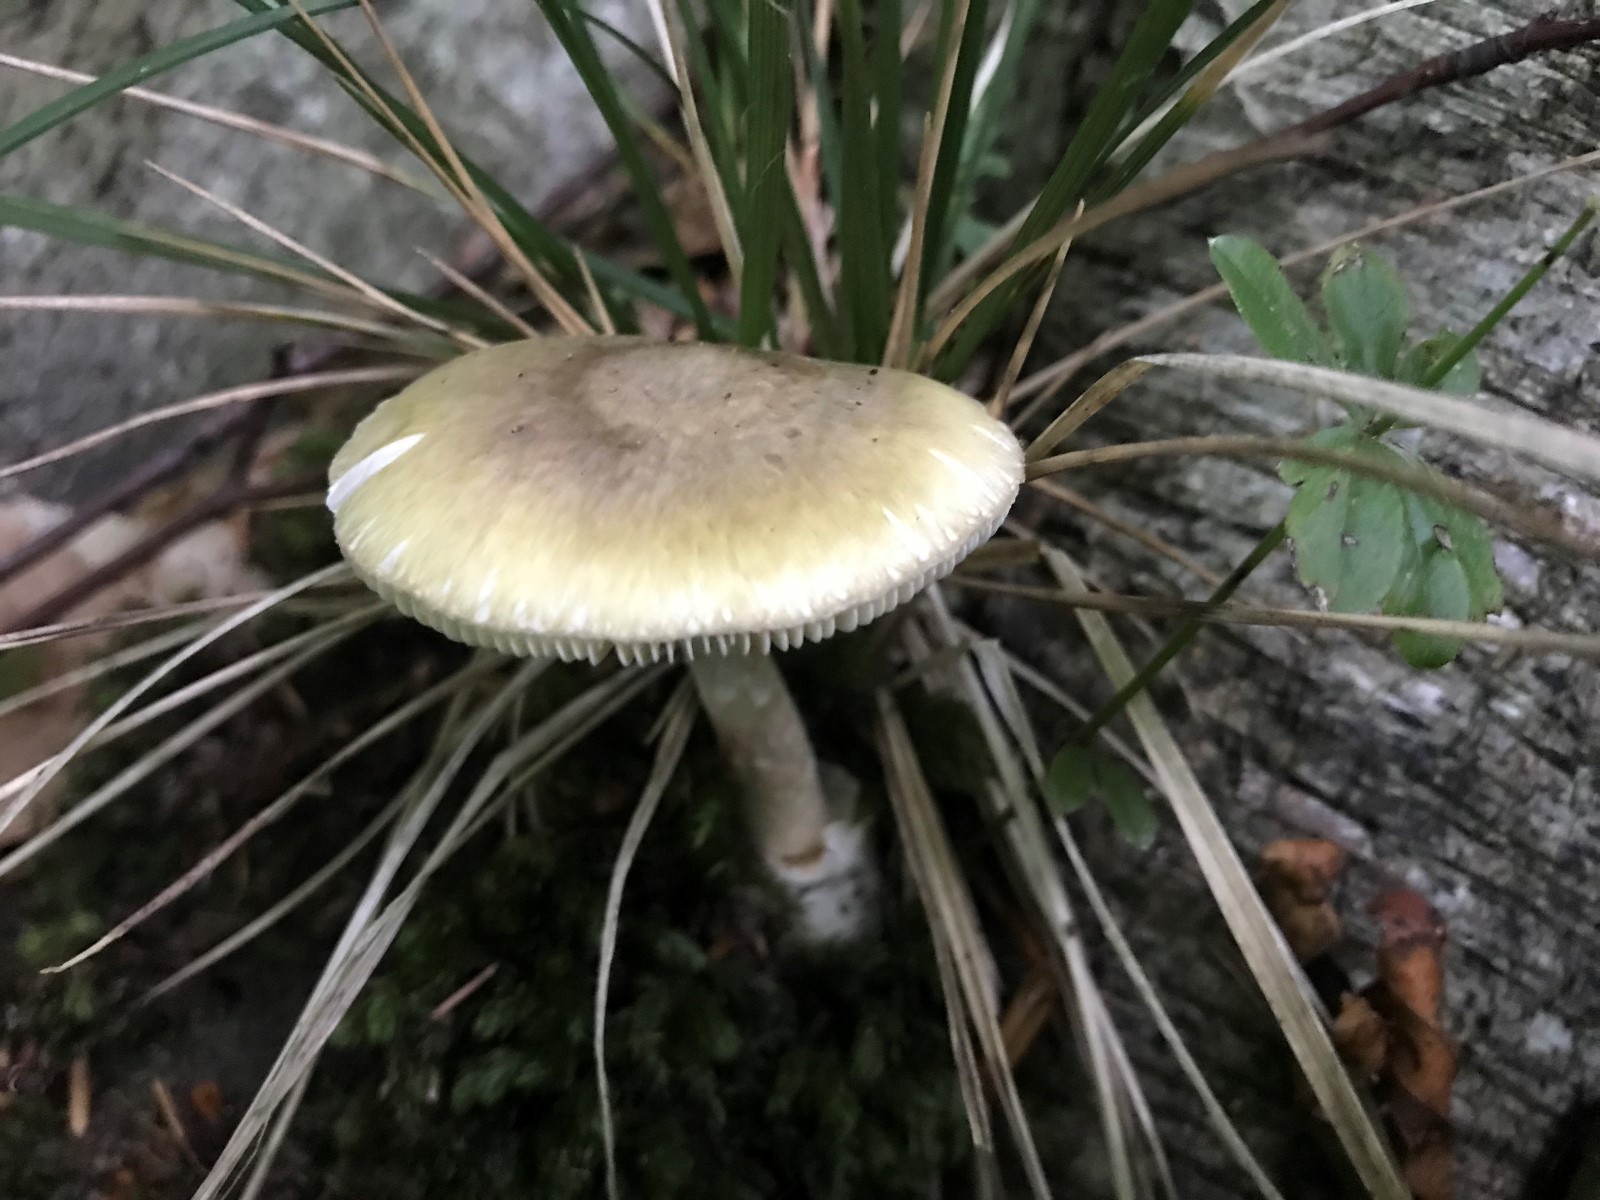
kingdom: Fungi
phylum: Basidiomycota
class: Agaricomycetes
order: Agaricales
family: Amanitaceae
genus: Amanita
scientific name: Amanita phalloides
